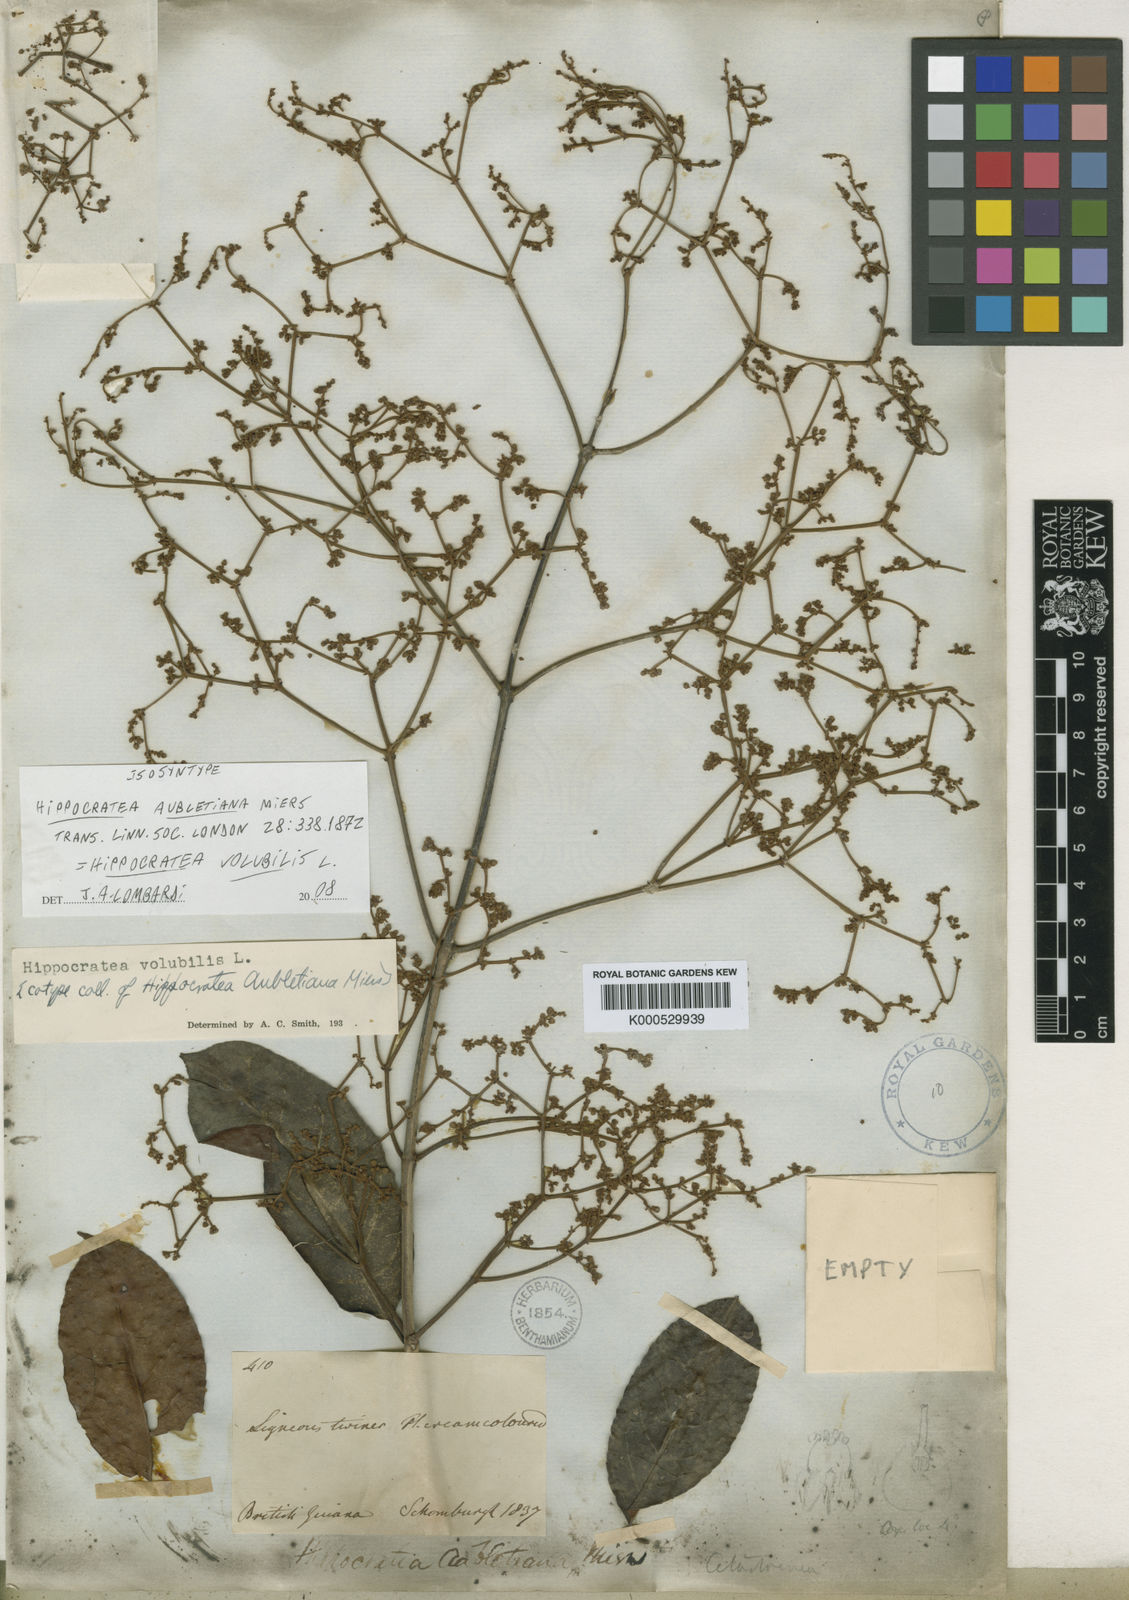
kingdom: Plantae
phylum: Tracheophyta
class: Magnoliopsida
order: Celastrales
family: Celastraceae
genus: Hippocratea
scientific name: Hippocratea volubilis
